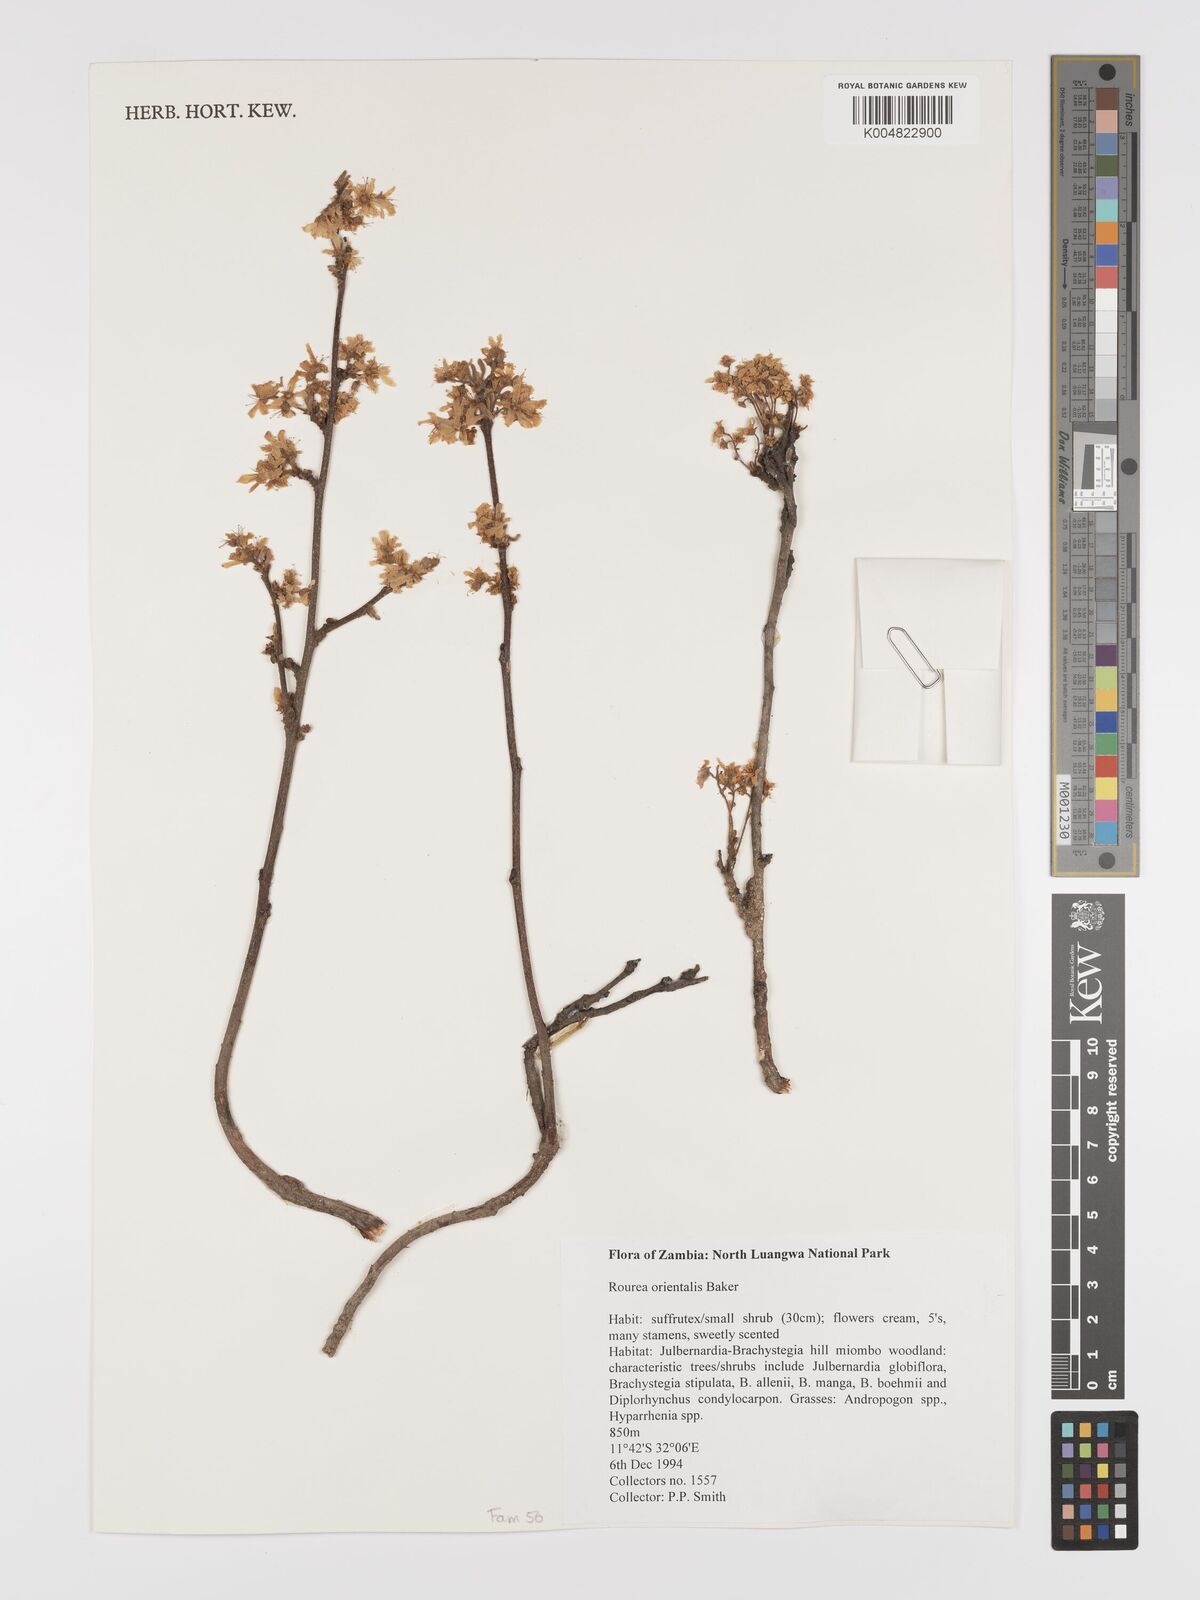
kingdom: Plantae
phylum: Tracheophyta
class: Magnoliopsida
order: Oxalidales
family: Connaraceae
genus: Rourea
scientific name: Rourea orientalis
